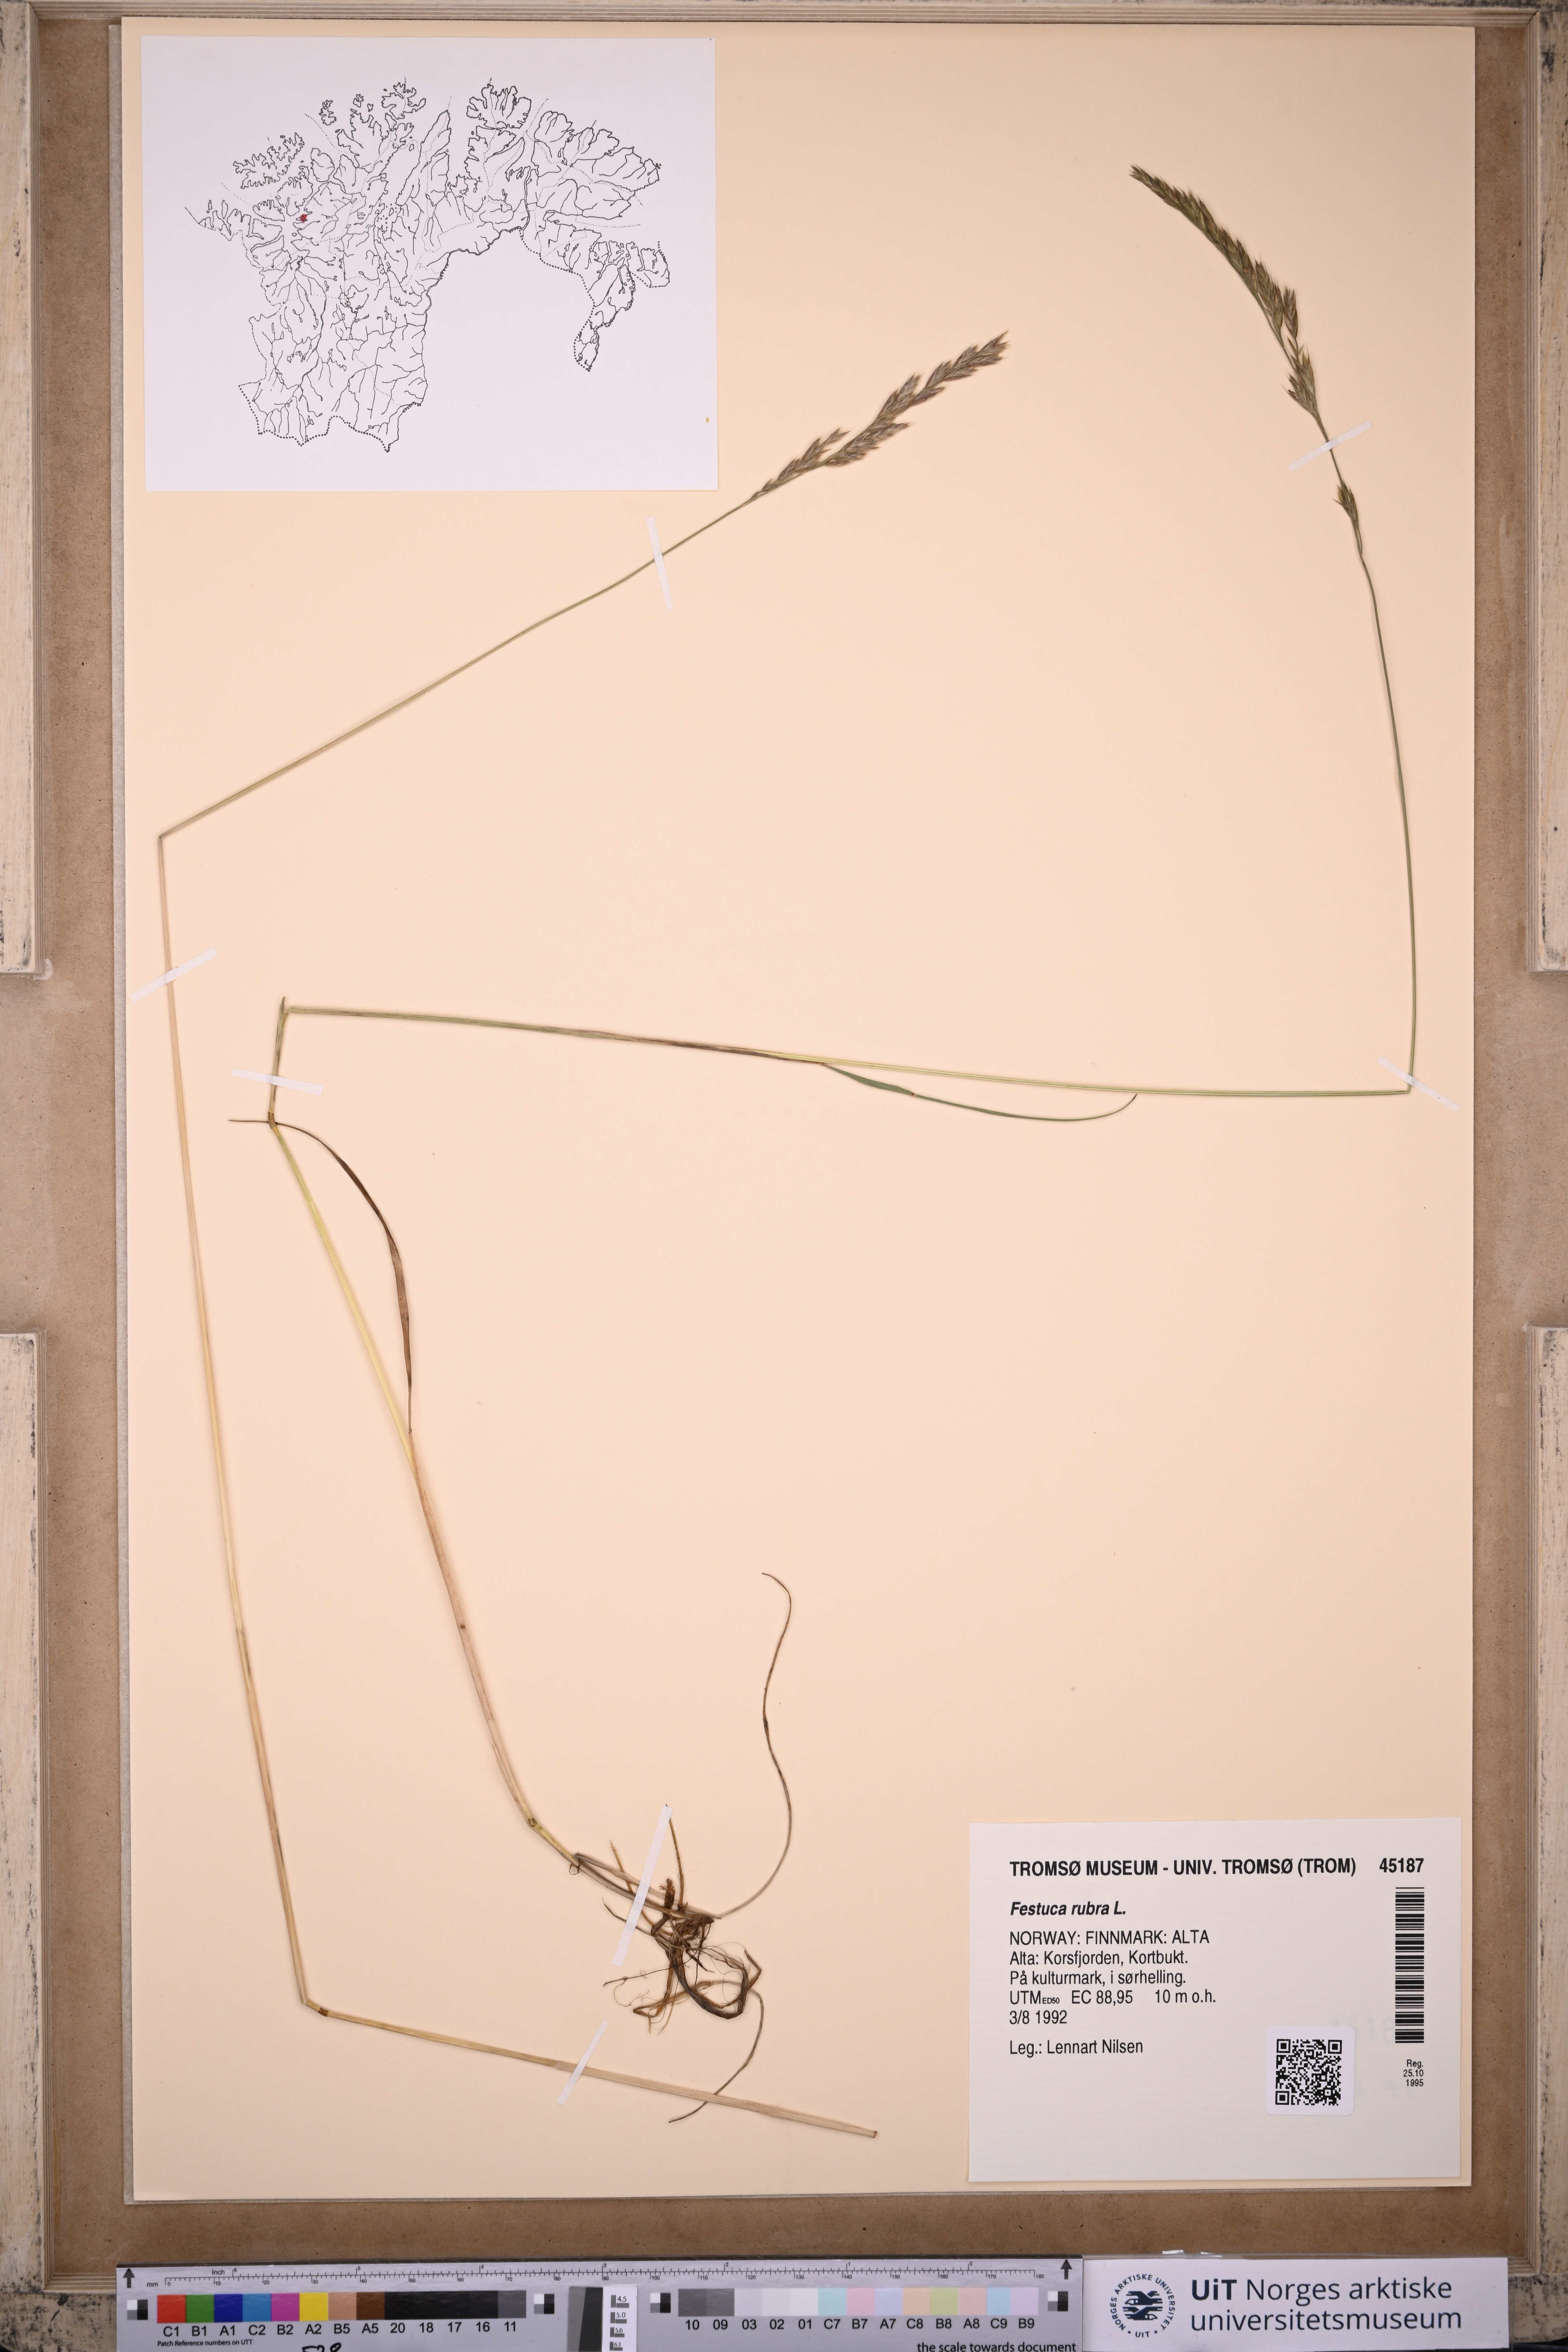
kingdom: Plantae
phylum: Tracheophyta
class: Liliopsida
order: Poales
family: Poaceae
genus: Festuca
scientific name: Festuca rubra
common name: Red fescue
